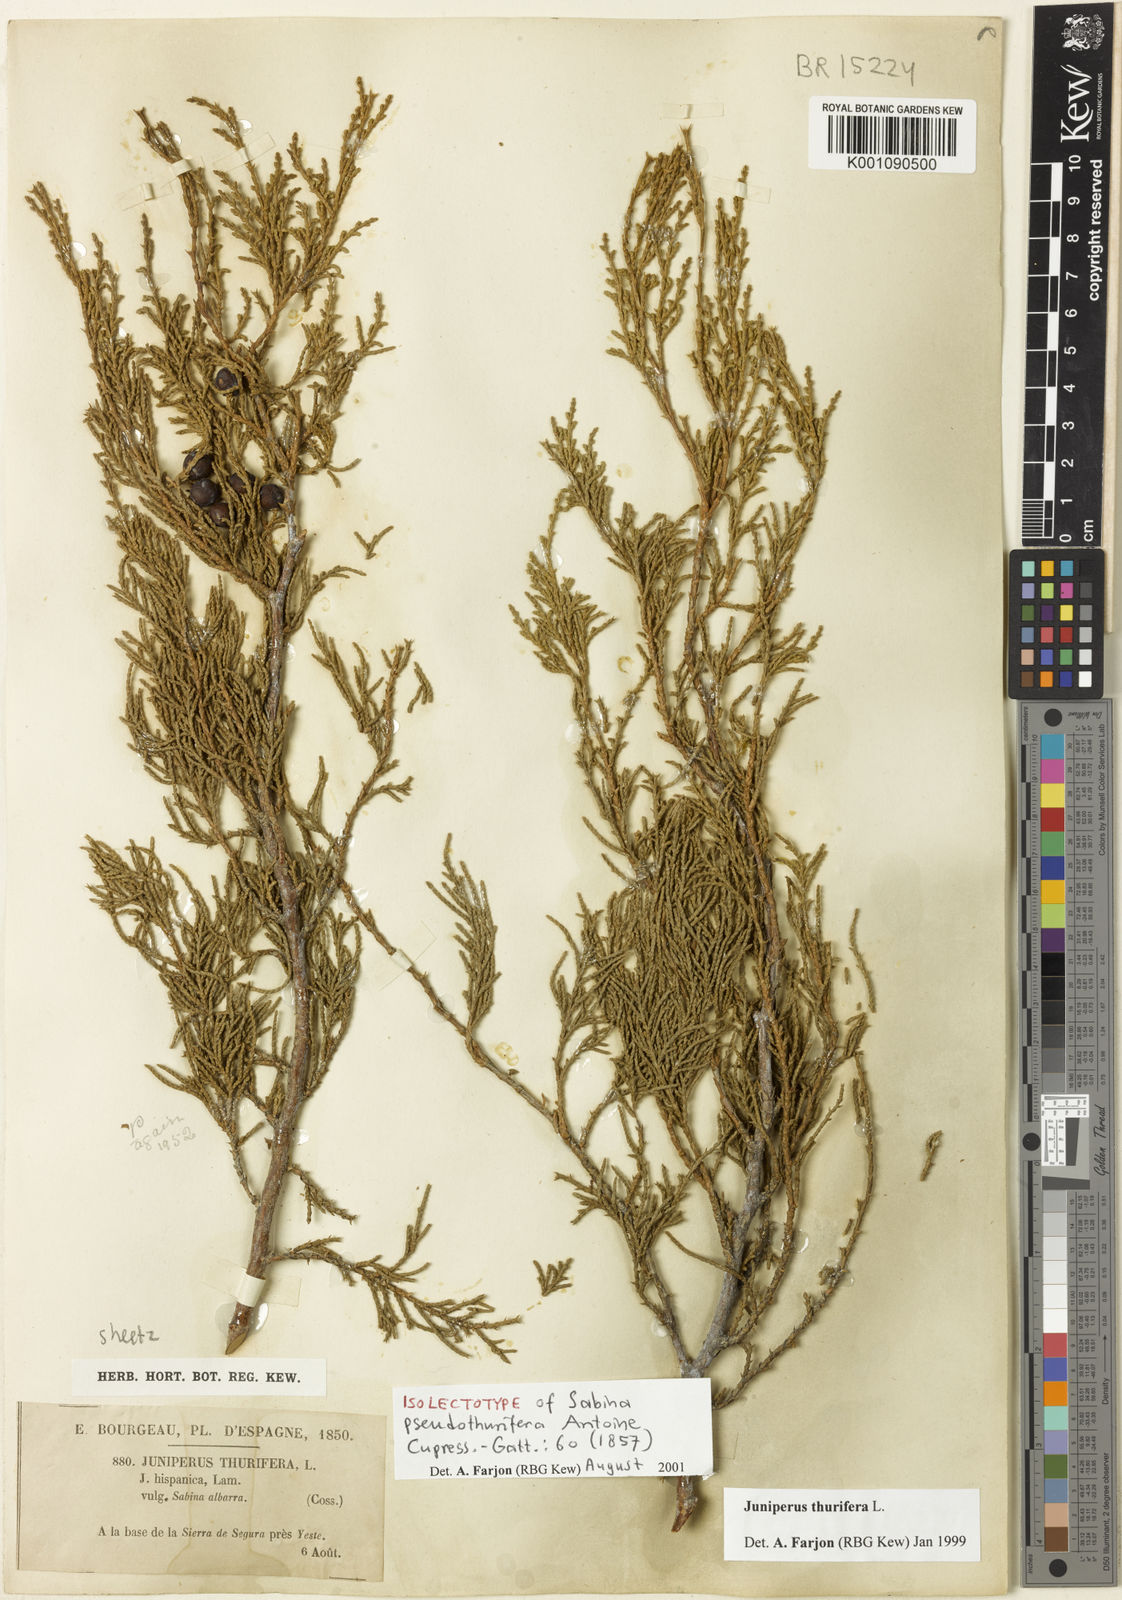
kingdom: Plantae
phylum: Tracheophyta
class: Pinopsida
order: Pinales
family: Cupressaceae
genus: Juniperus
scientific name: Juniperus thurifera
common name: Incense juniper
